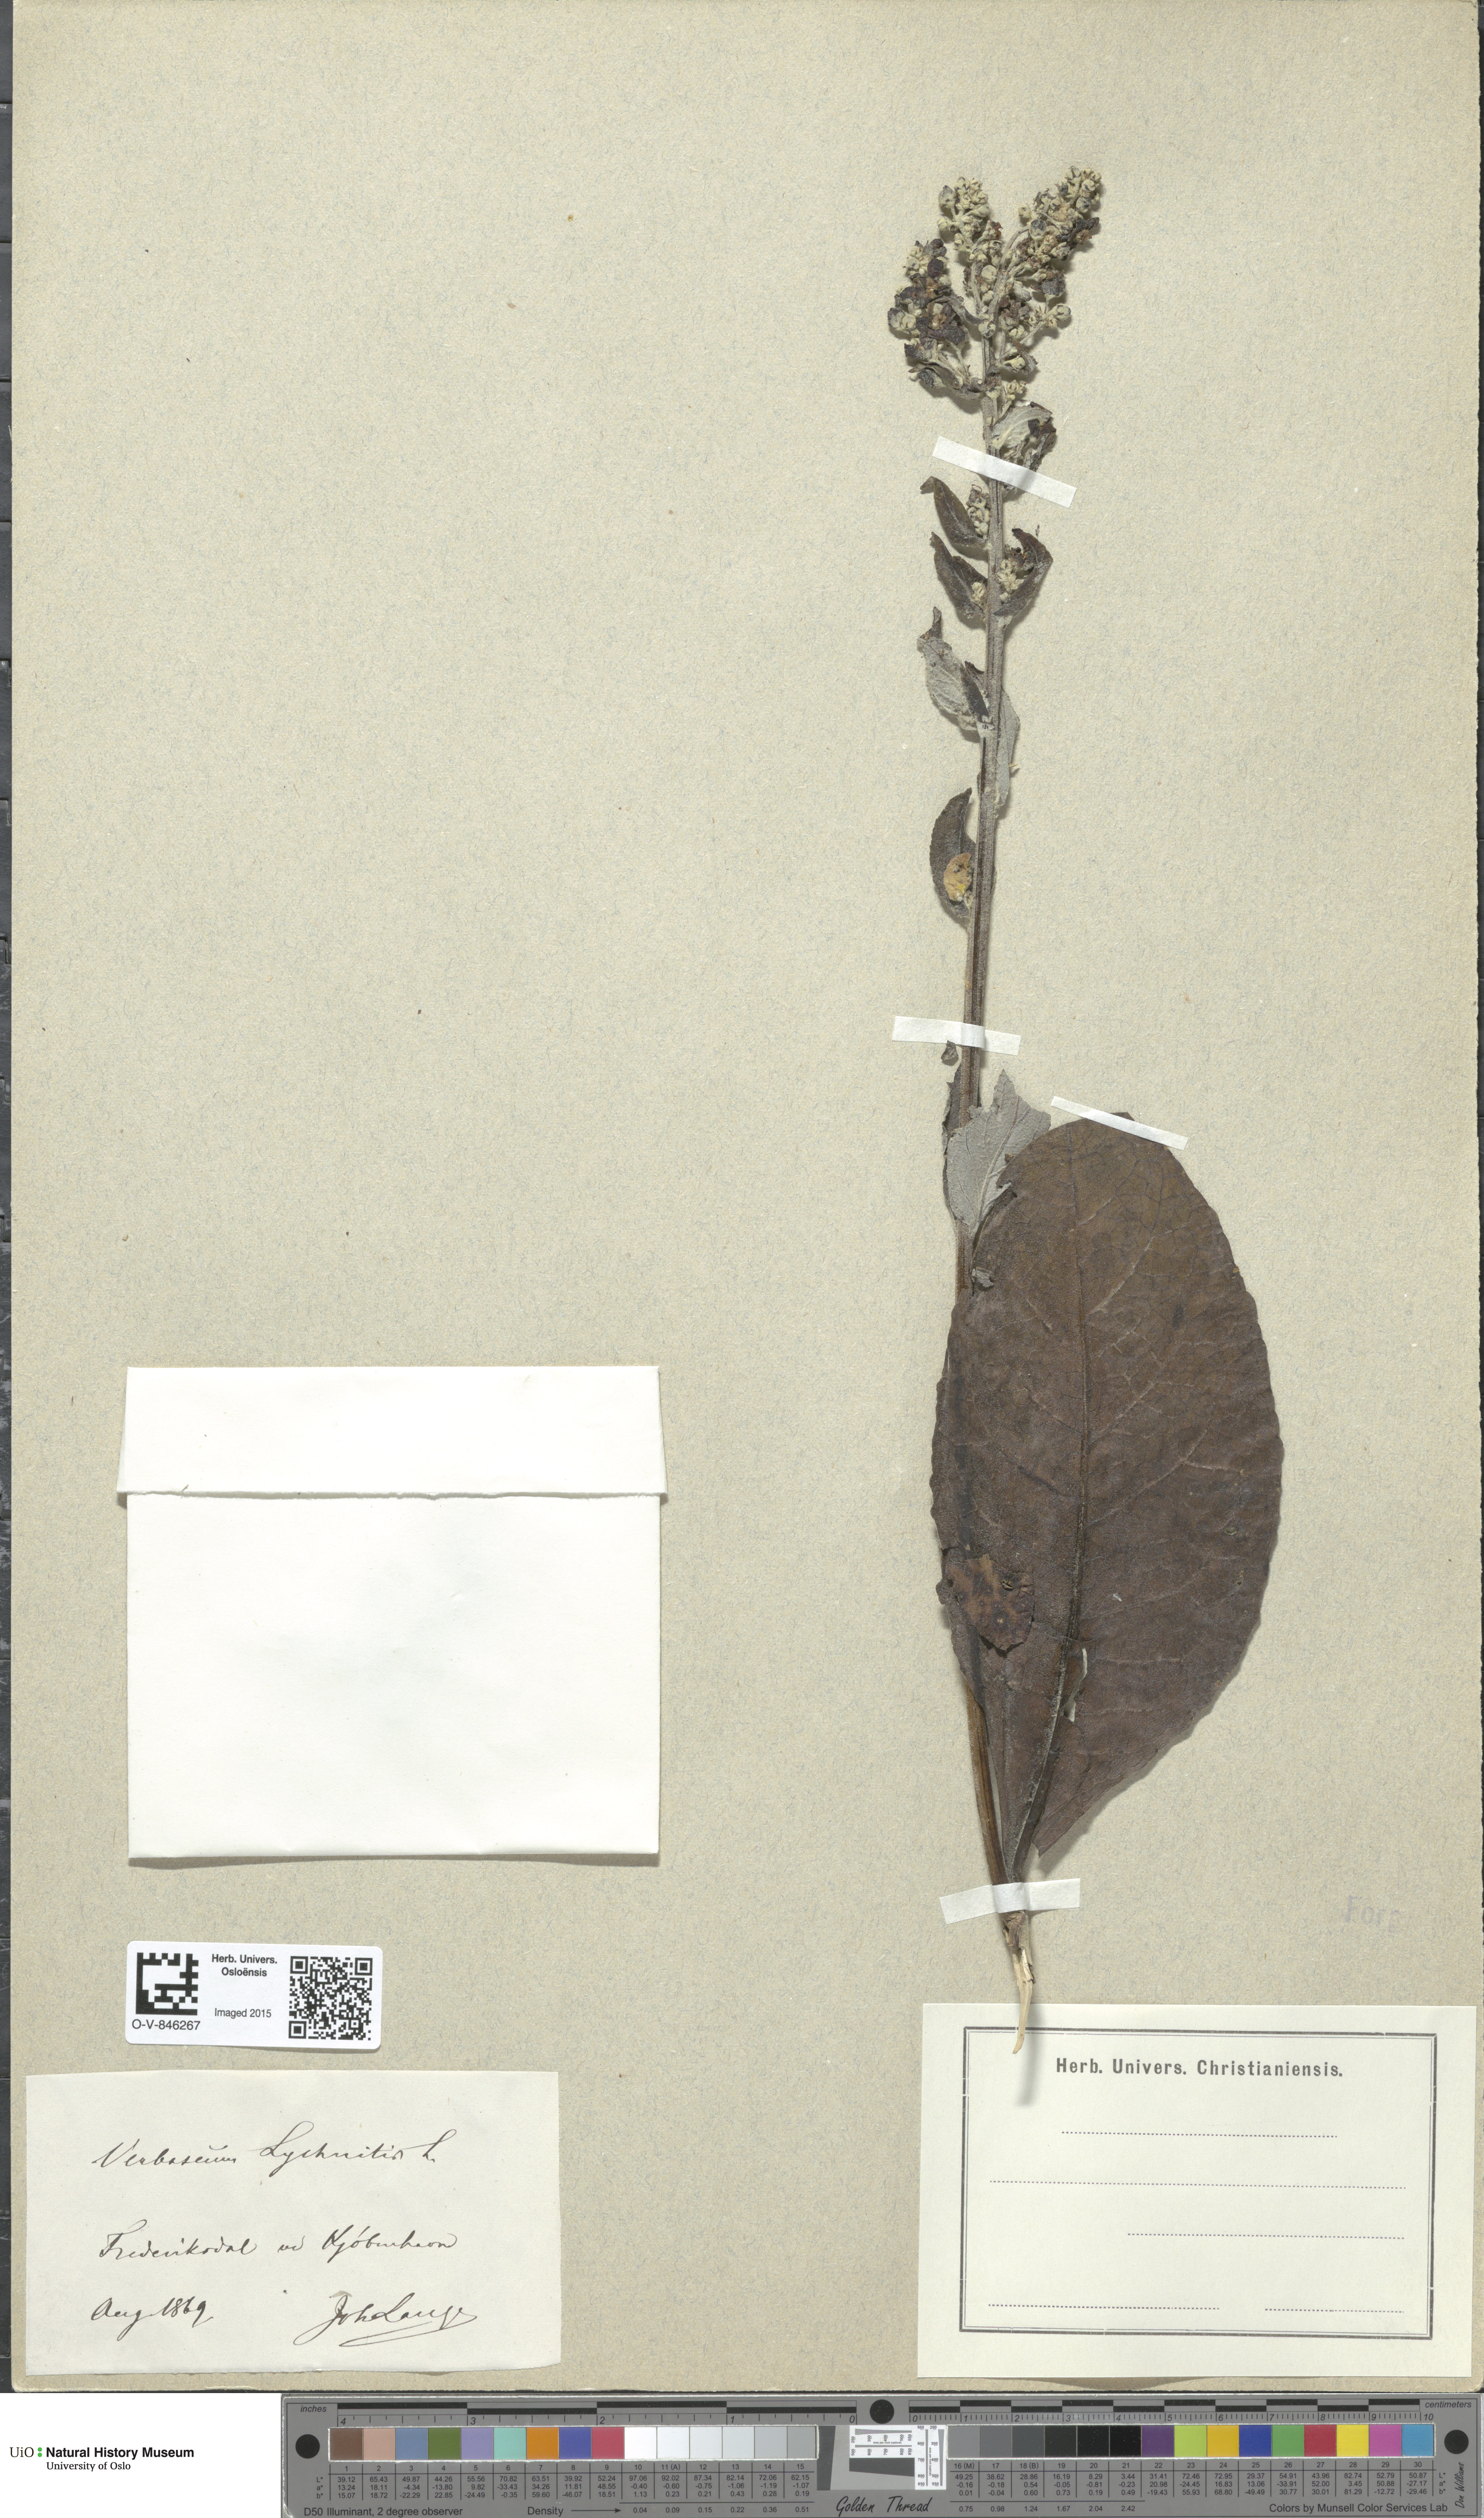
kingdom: Plantae
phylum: Tracheophyta
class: Magnoliopsida
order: Lamiales
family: Scrophulariaceae
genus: Verbascum
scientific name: Verbascum lychnitis
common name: White mullein
